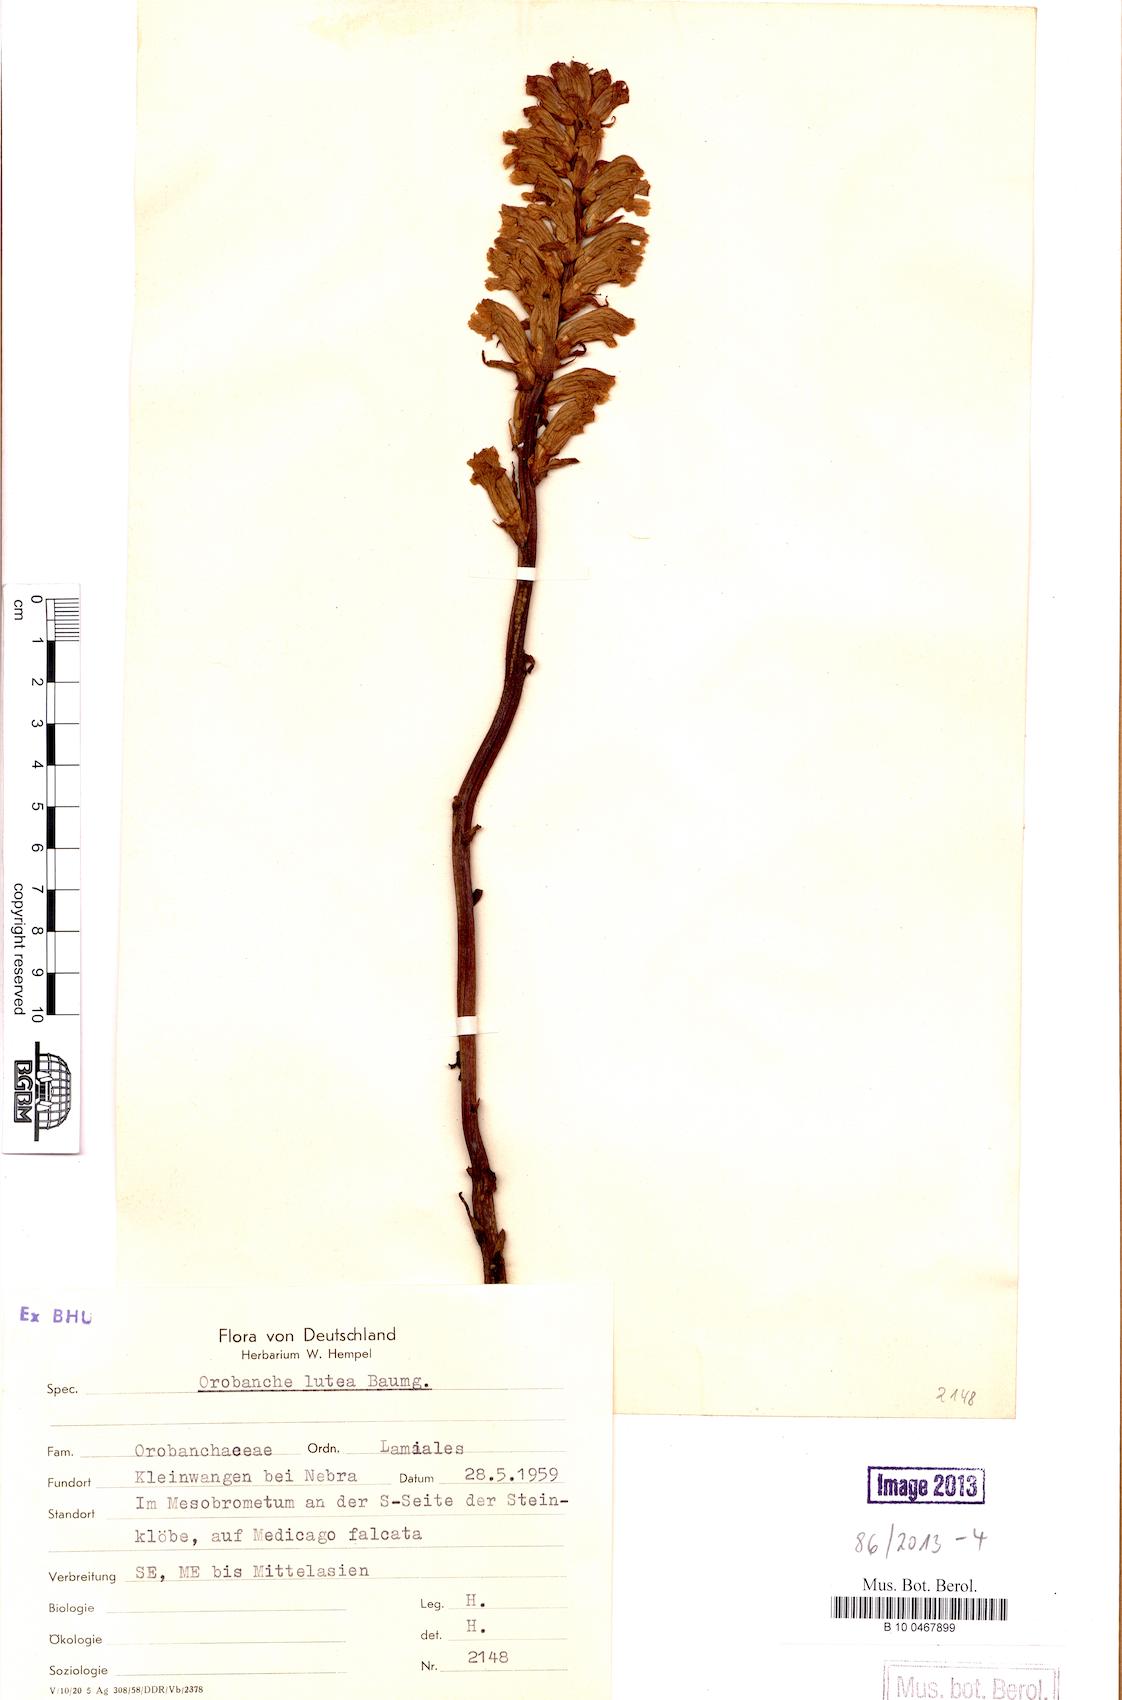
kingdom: Plantae
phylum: Tracheophyta
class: Magnoliopsida
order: Lamiales
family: Orobanchaceae
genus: Orobanche
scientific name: Orobanche lutea
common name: Yellow broomrape
